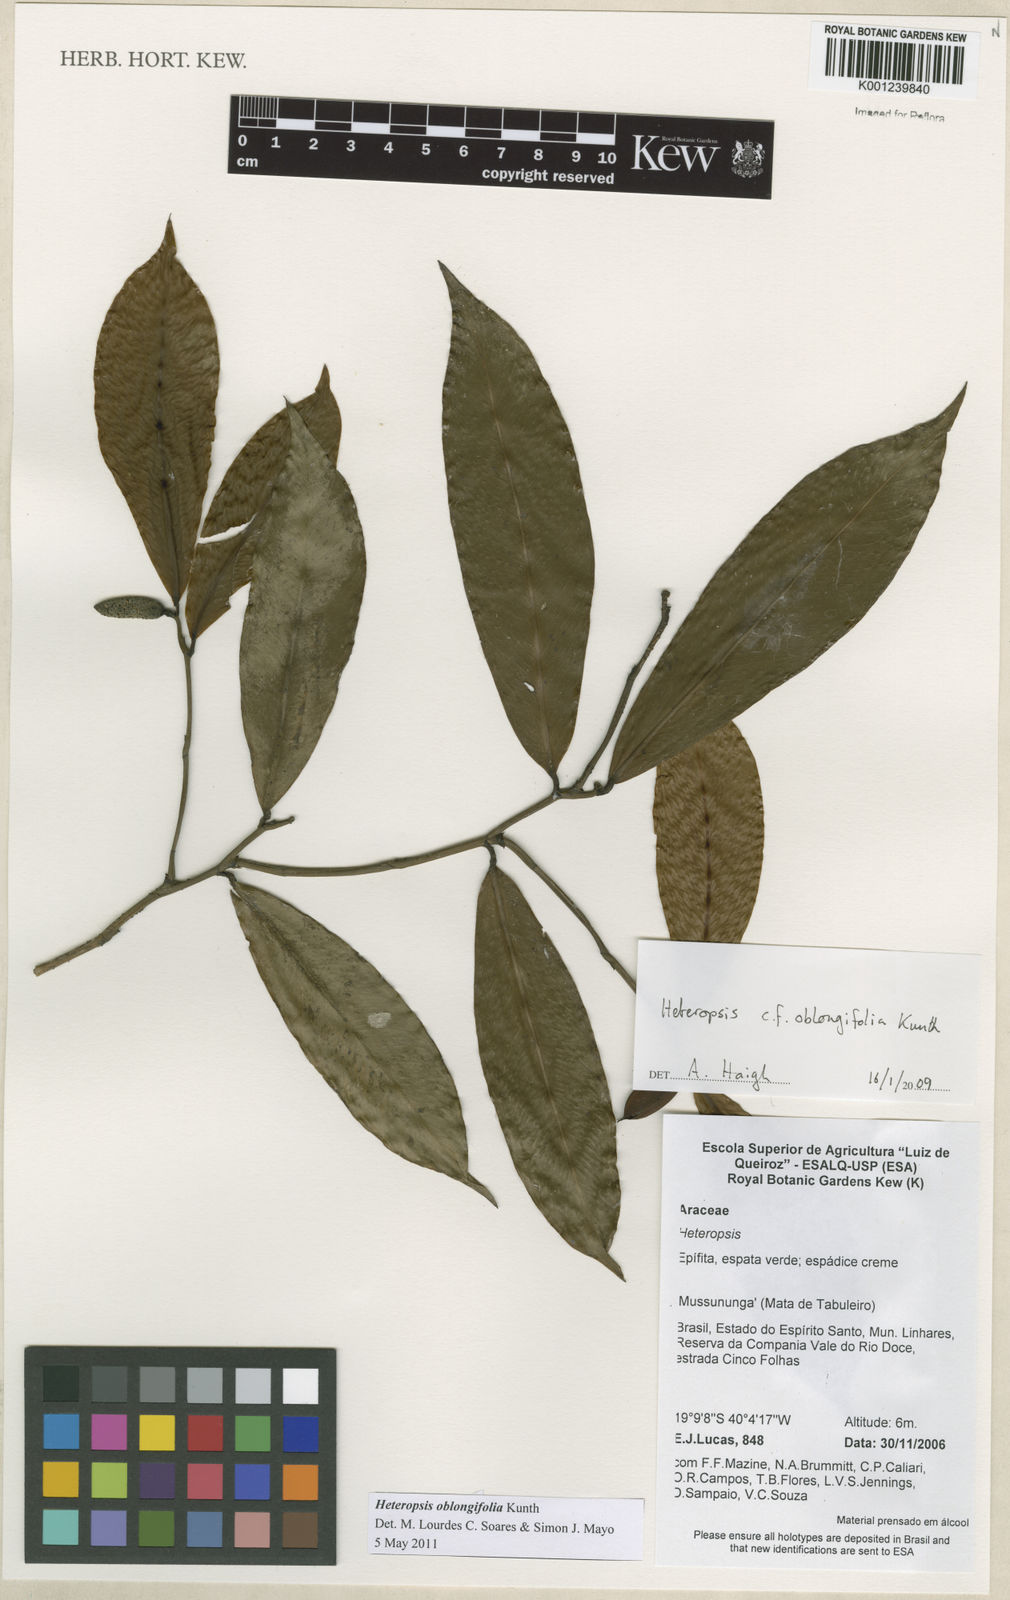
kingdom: Plantae
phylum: Tracheophyta
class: Liliopsida
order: Alismatales
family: Araceae
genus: Heteropsis
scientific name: Heteropsis oblongifolia
